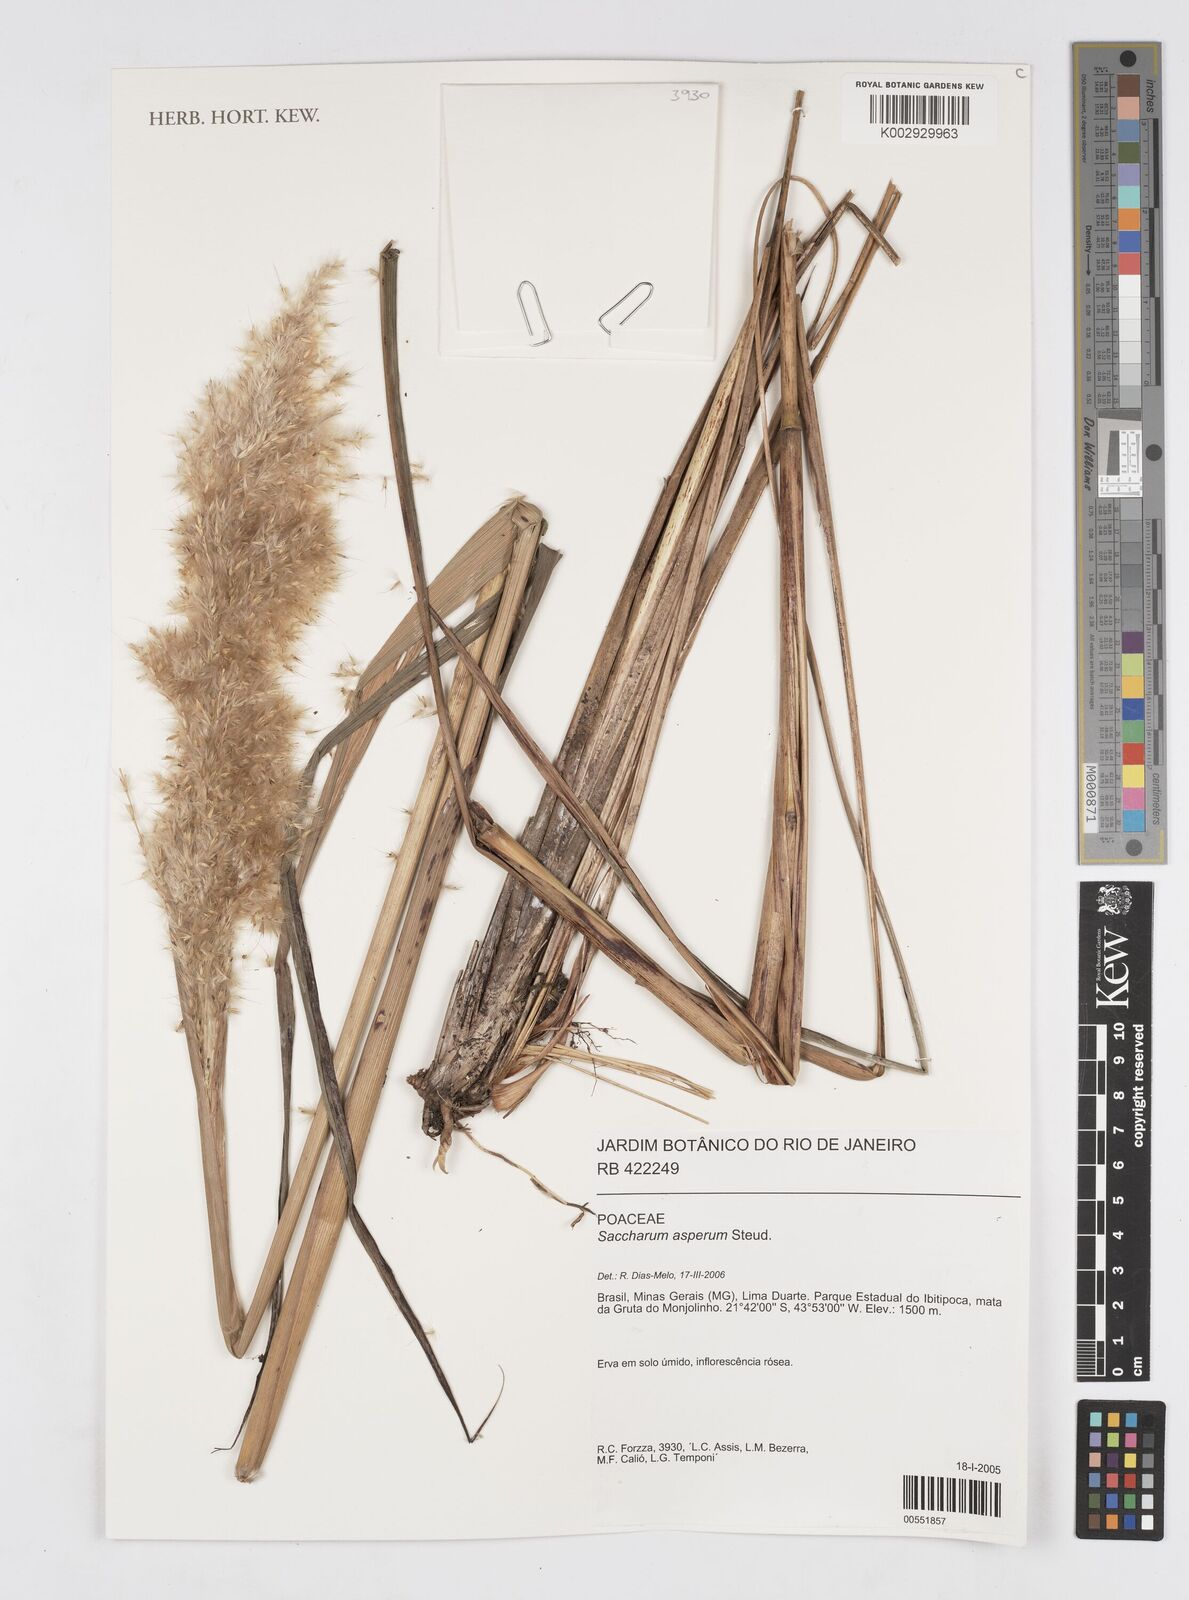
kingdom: Plantae
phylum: Tracheophyta
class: Liliopsida
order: Poales
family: Poaceae
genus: Erianthus
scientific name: Erianthus asper
